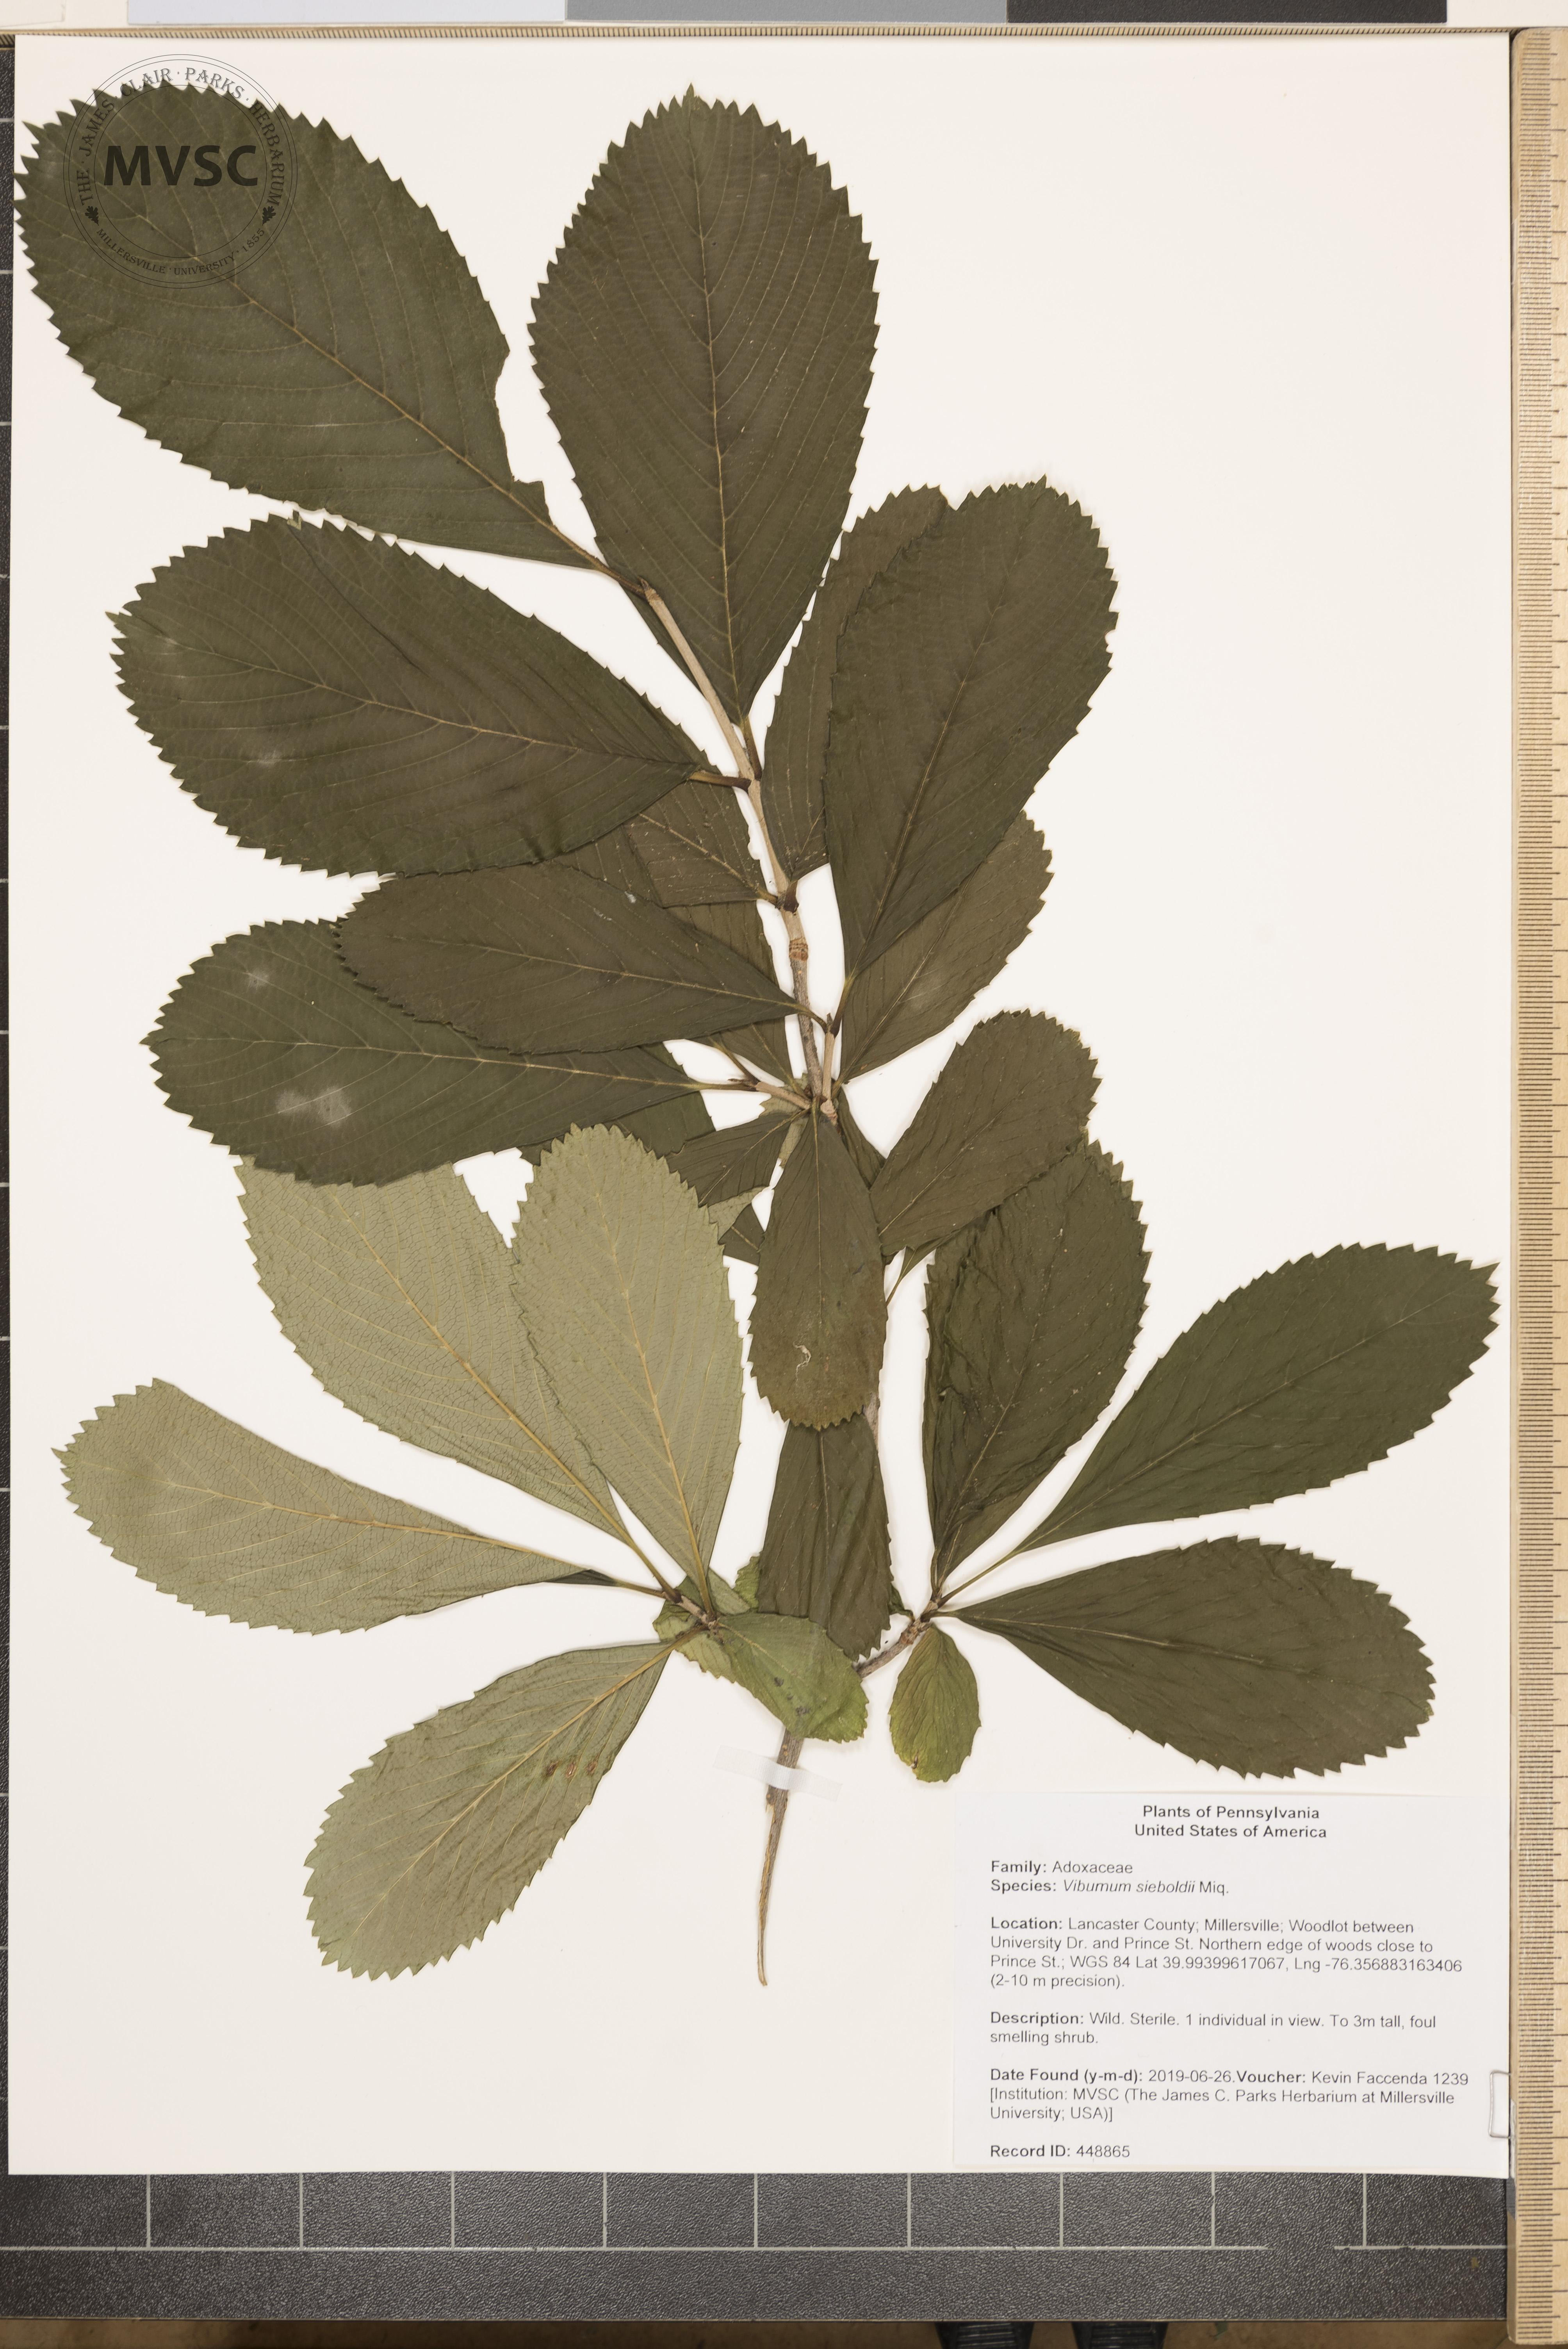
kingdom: Plantae
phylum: Tracheophyta
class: Magnoliopsida
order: Dipsacales
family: Viburnaceae
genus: Viburnum
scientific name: Viburnum sieboldii
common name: Siebold's arrowwood
